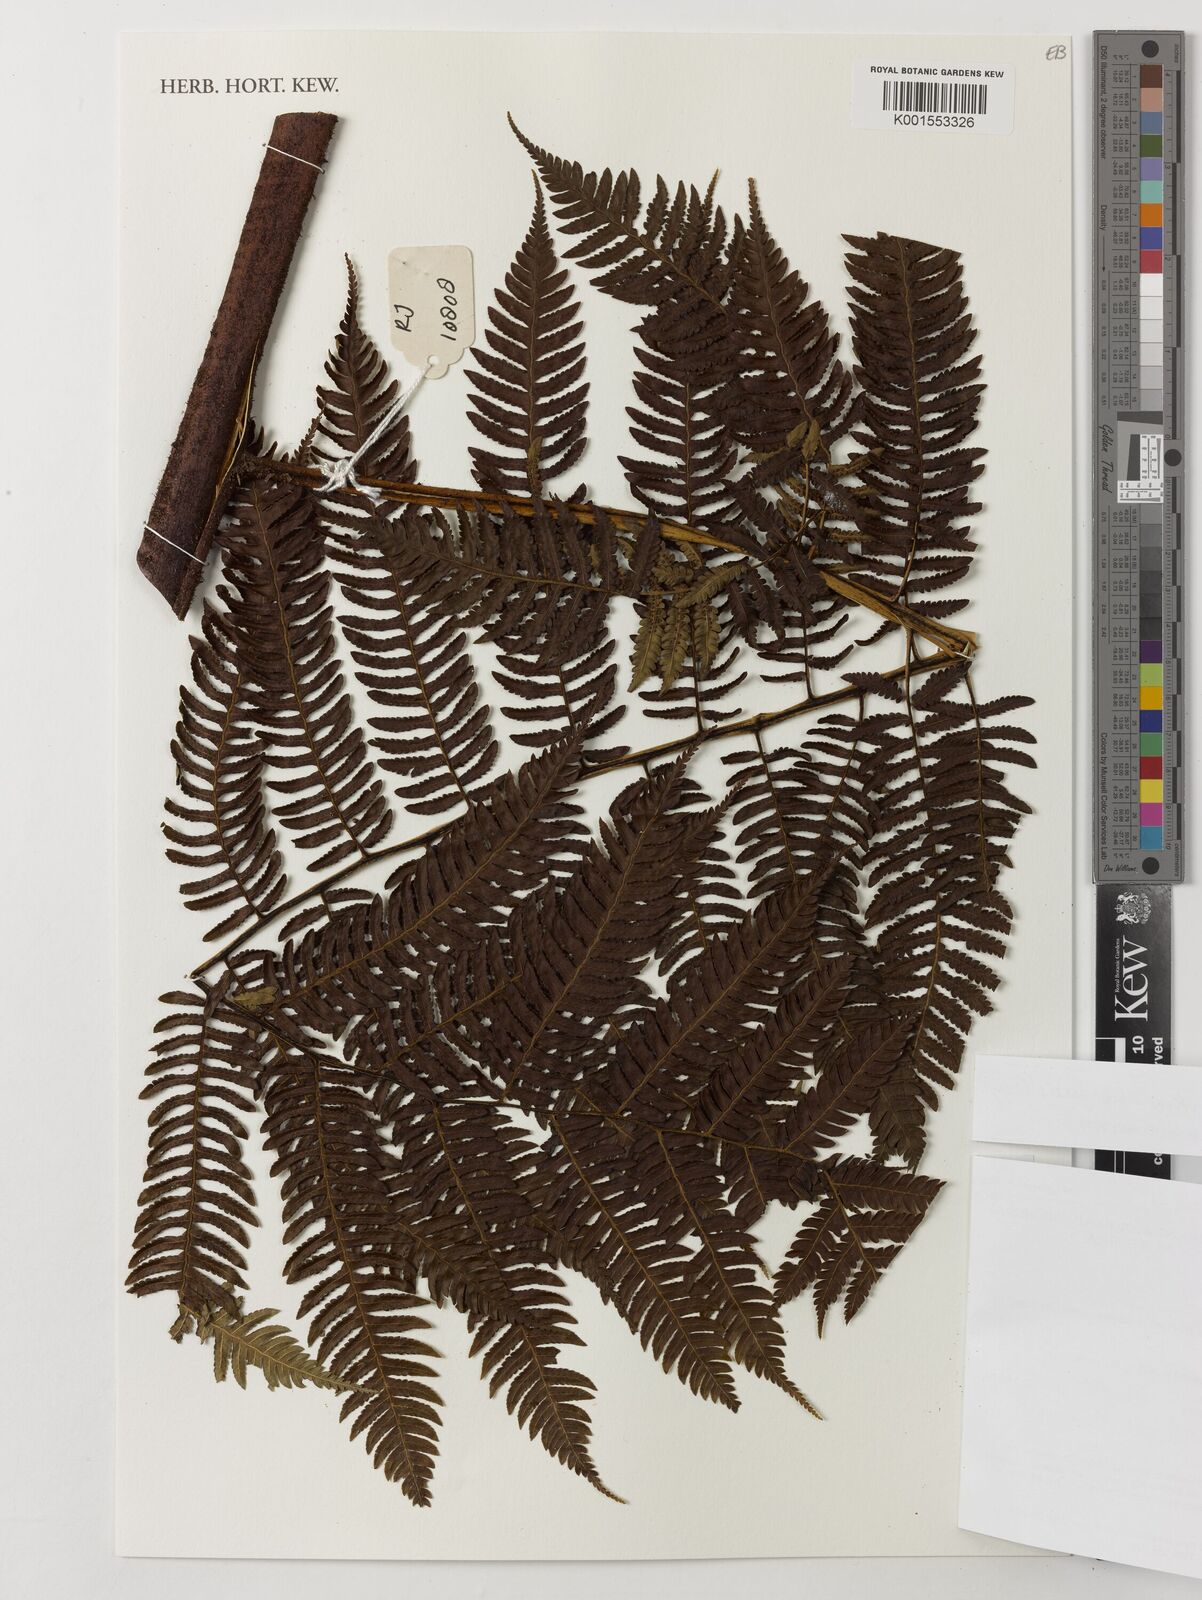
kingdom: Plantae
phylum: Tracheophyta
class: Polypodiopsida
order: Cyatheales
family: Cyatheaceae
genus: Sphaeropteris
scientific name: Sphaeropteris
